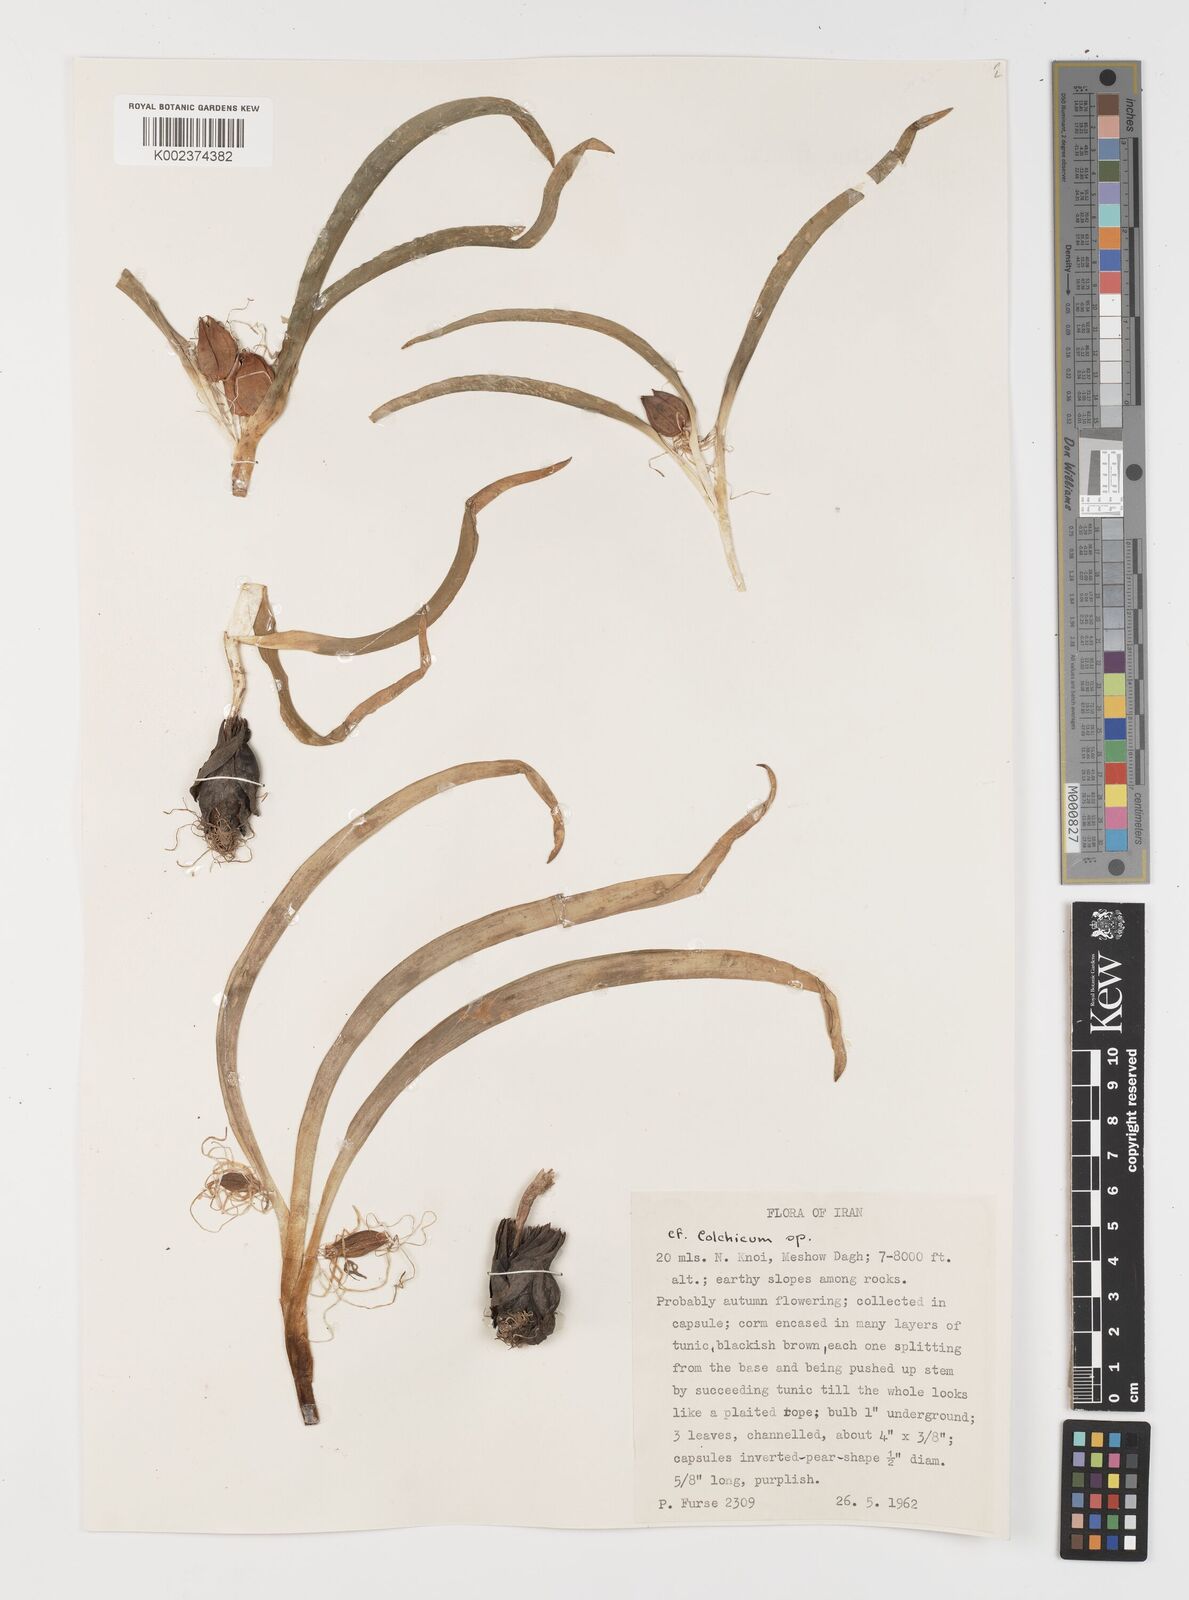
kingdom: Plantae
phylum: Tracheophyta
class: Liliopsida
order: Liliales
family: Colchicaceae
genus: Colchicum
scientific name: Colchicum
